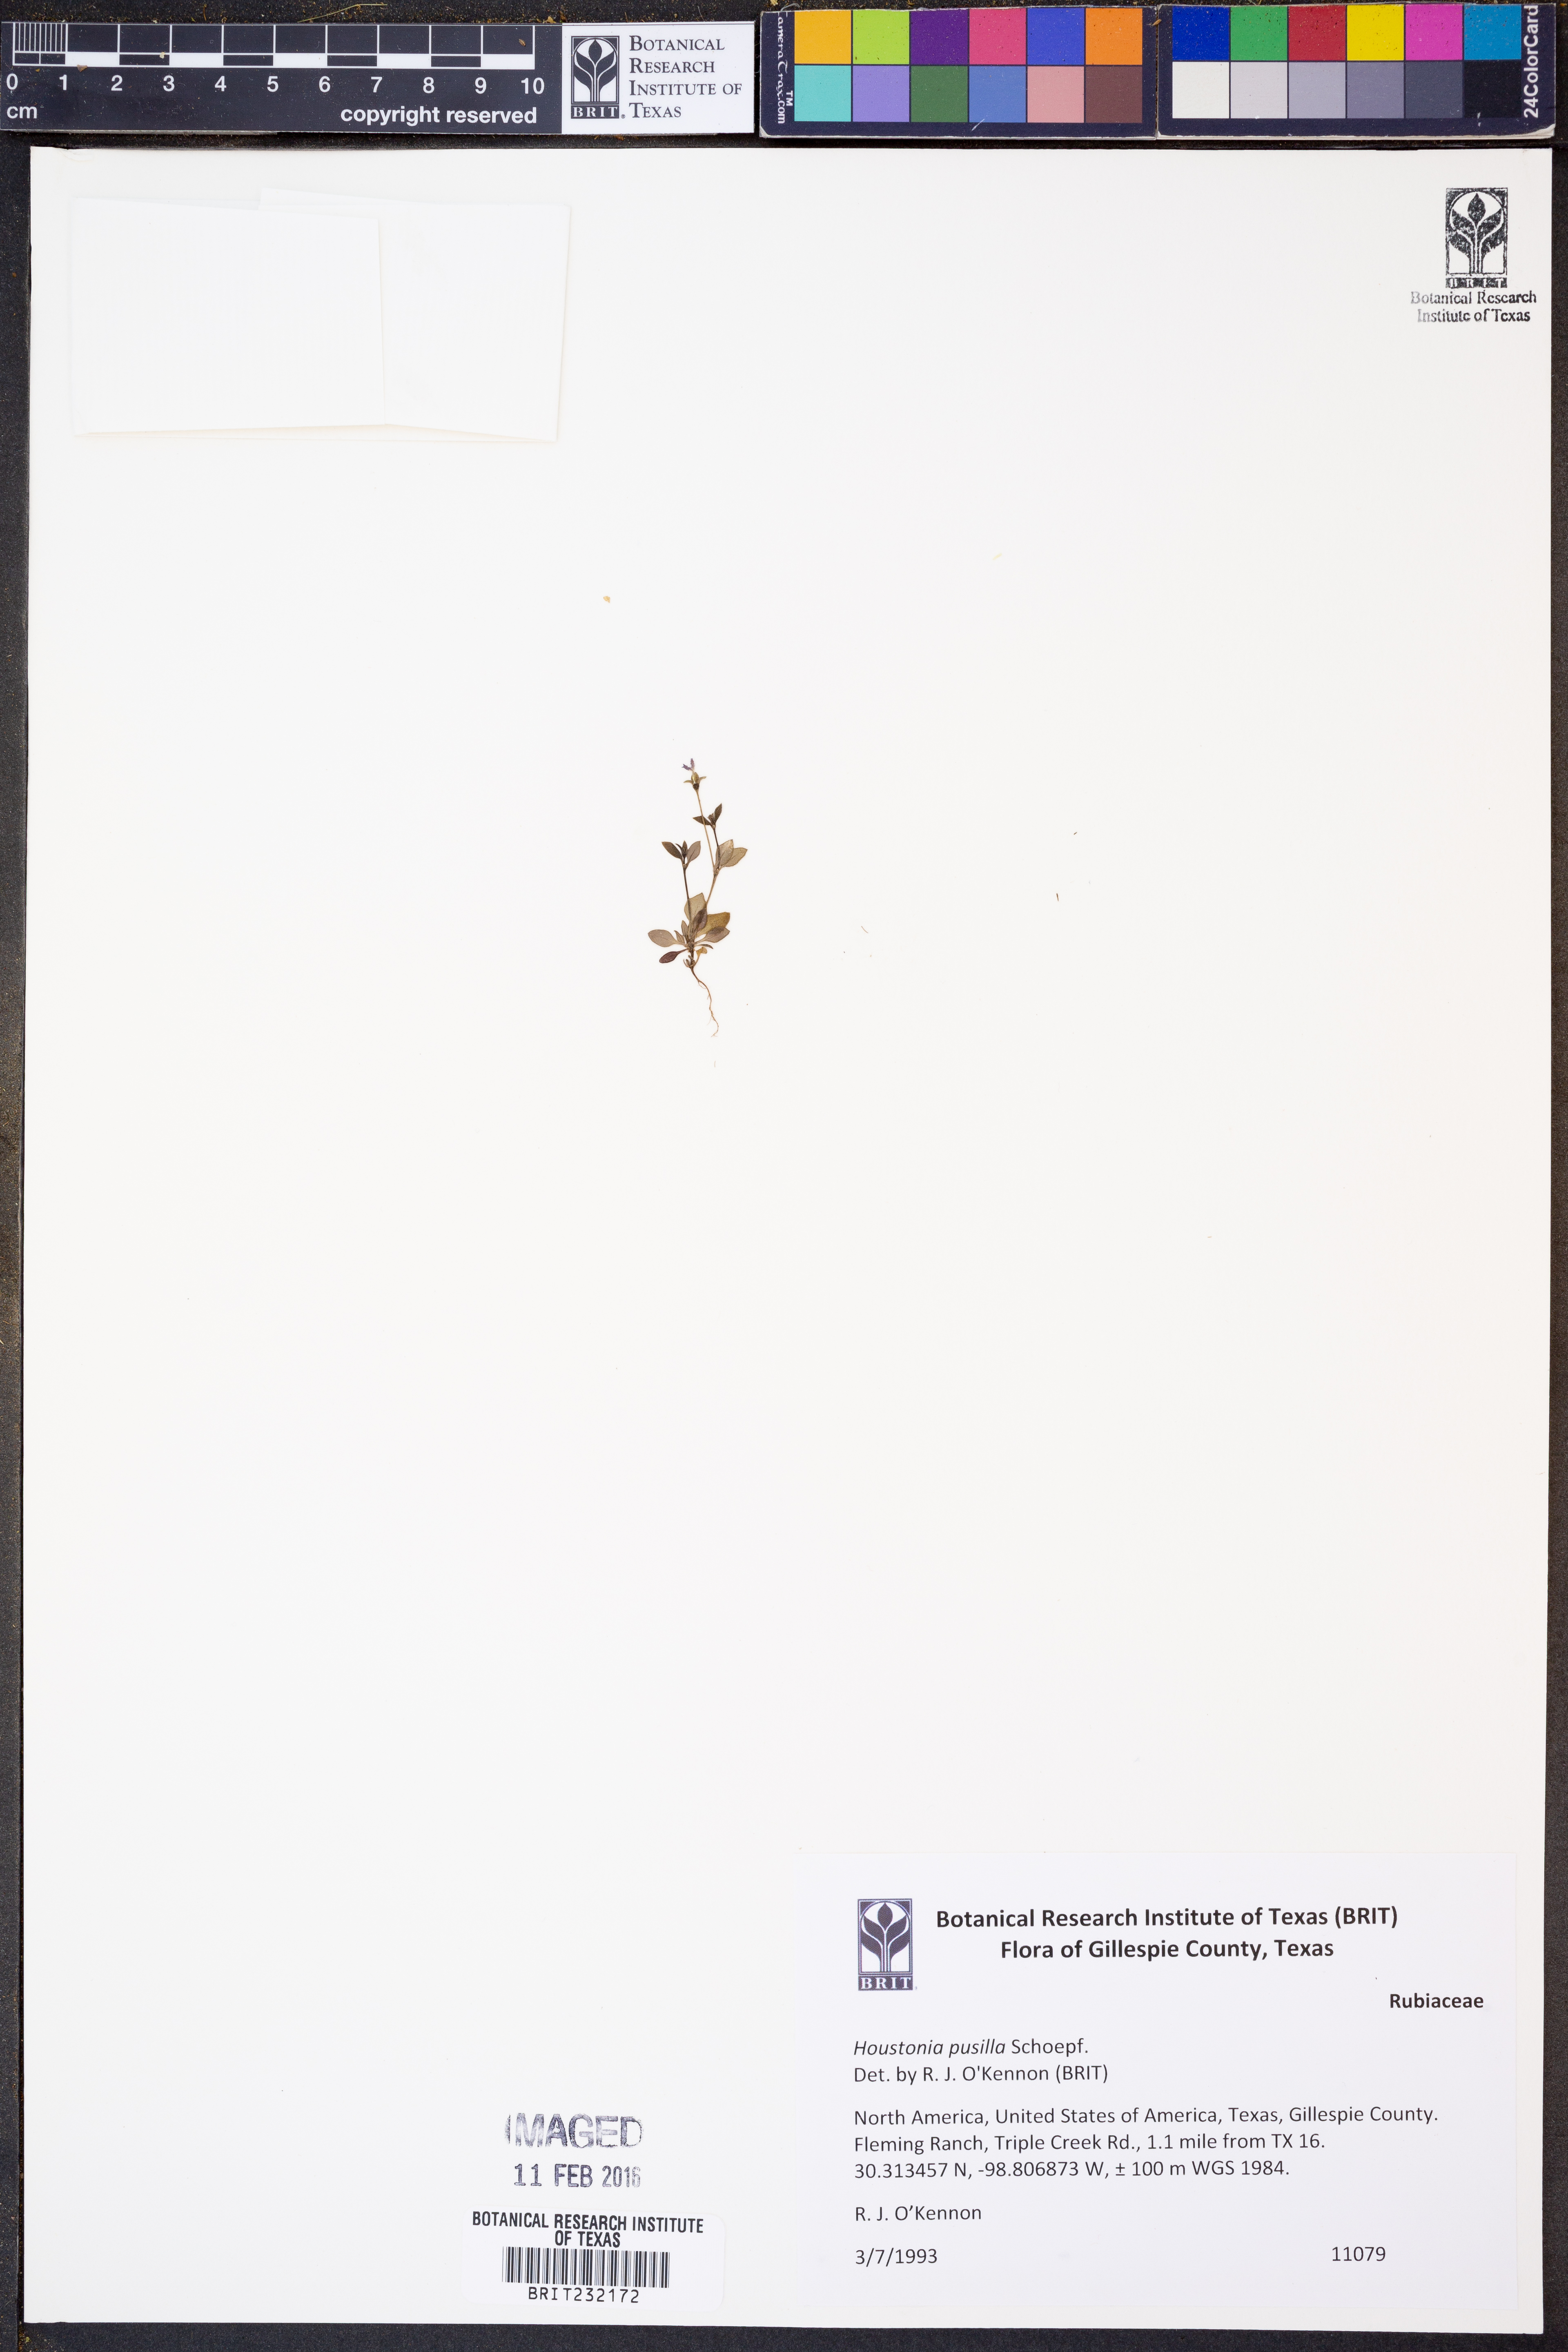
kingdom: Plantae
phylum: Tracheophyta
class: Magnoliopsida
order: Gentianales
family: Rubiaceae
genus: Houstonia
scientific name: Houstonia pusilla
